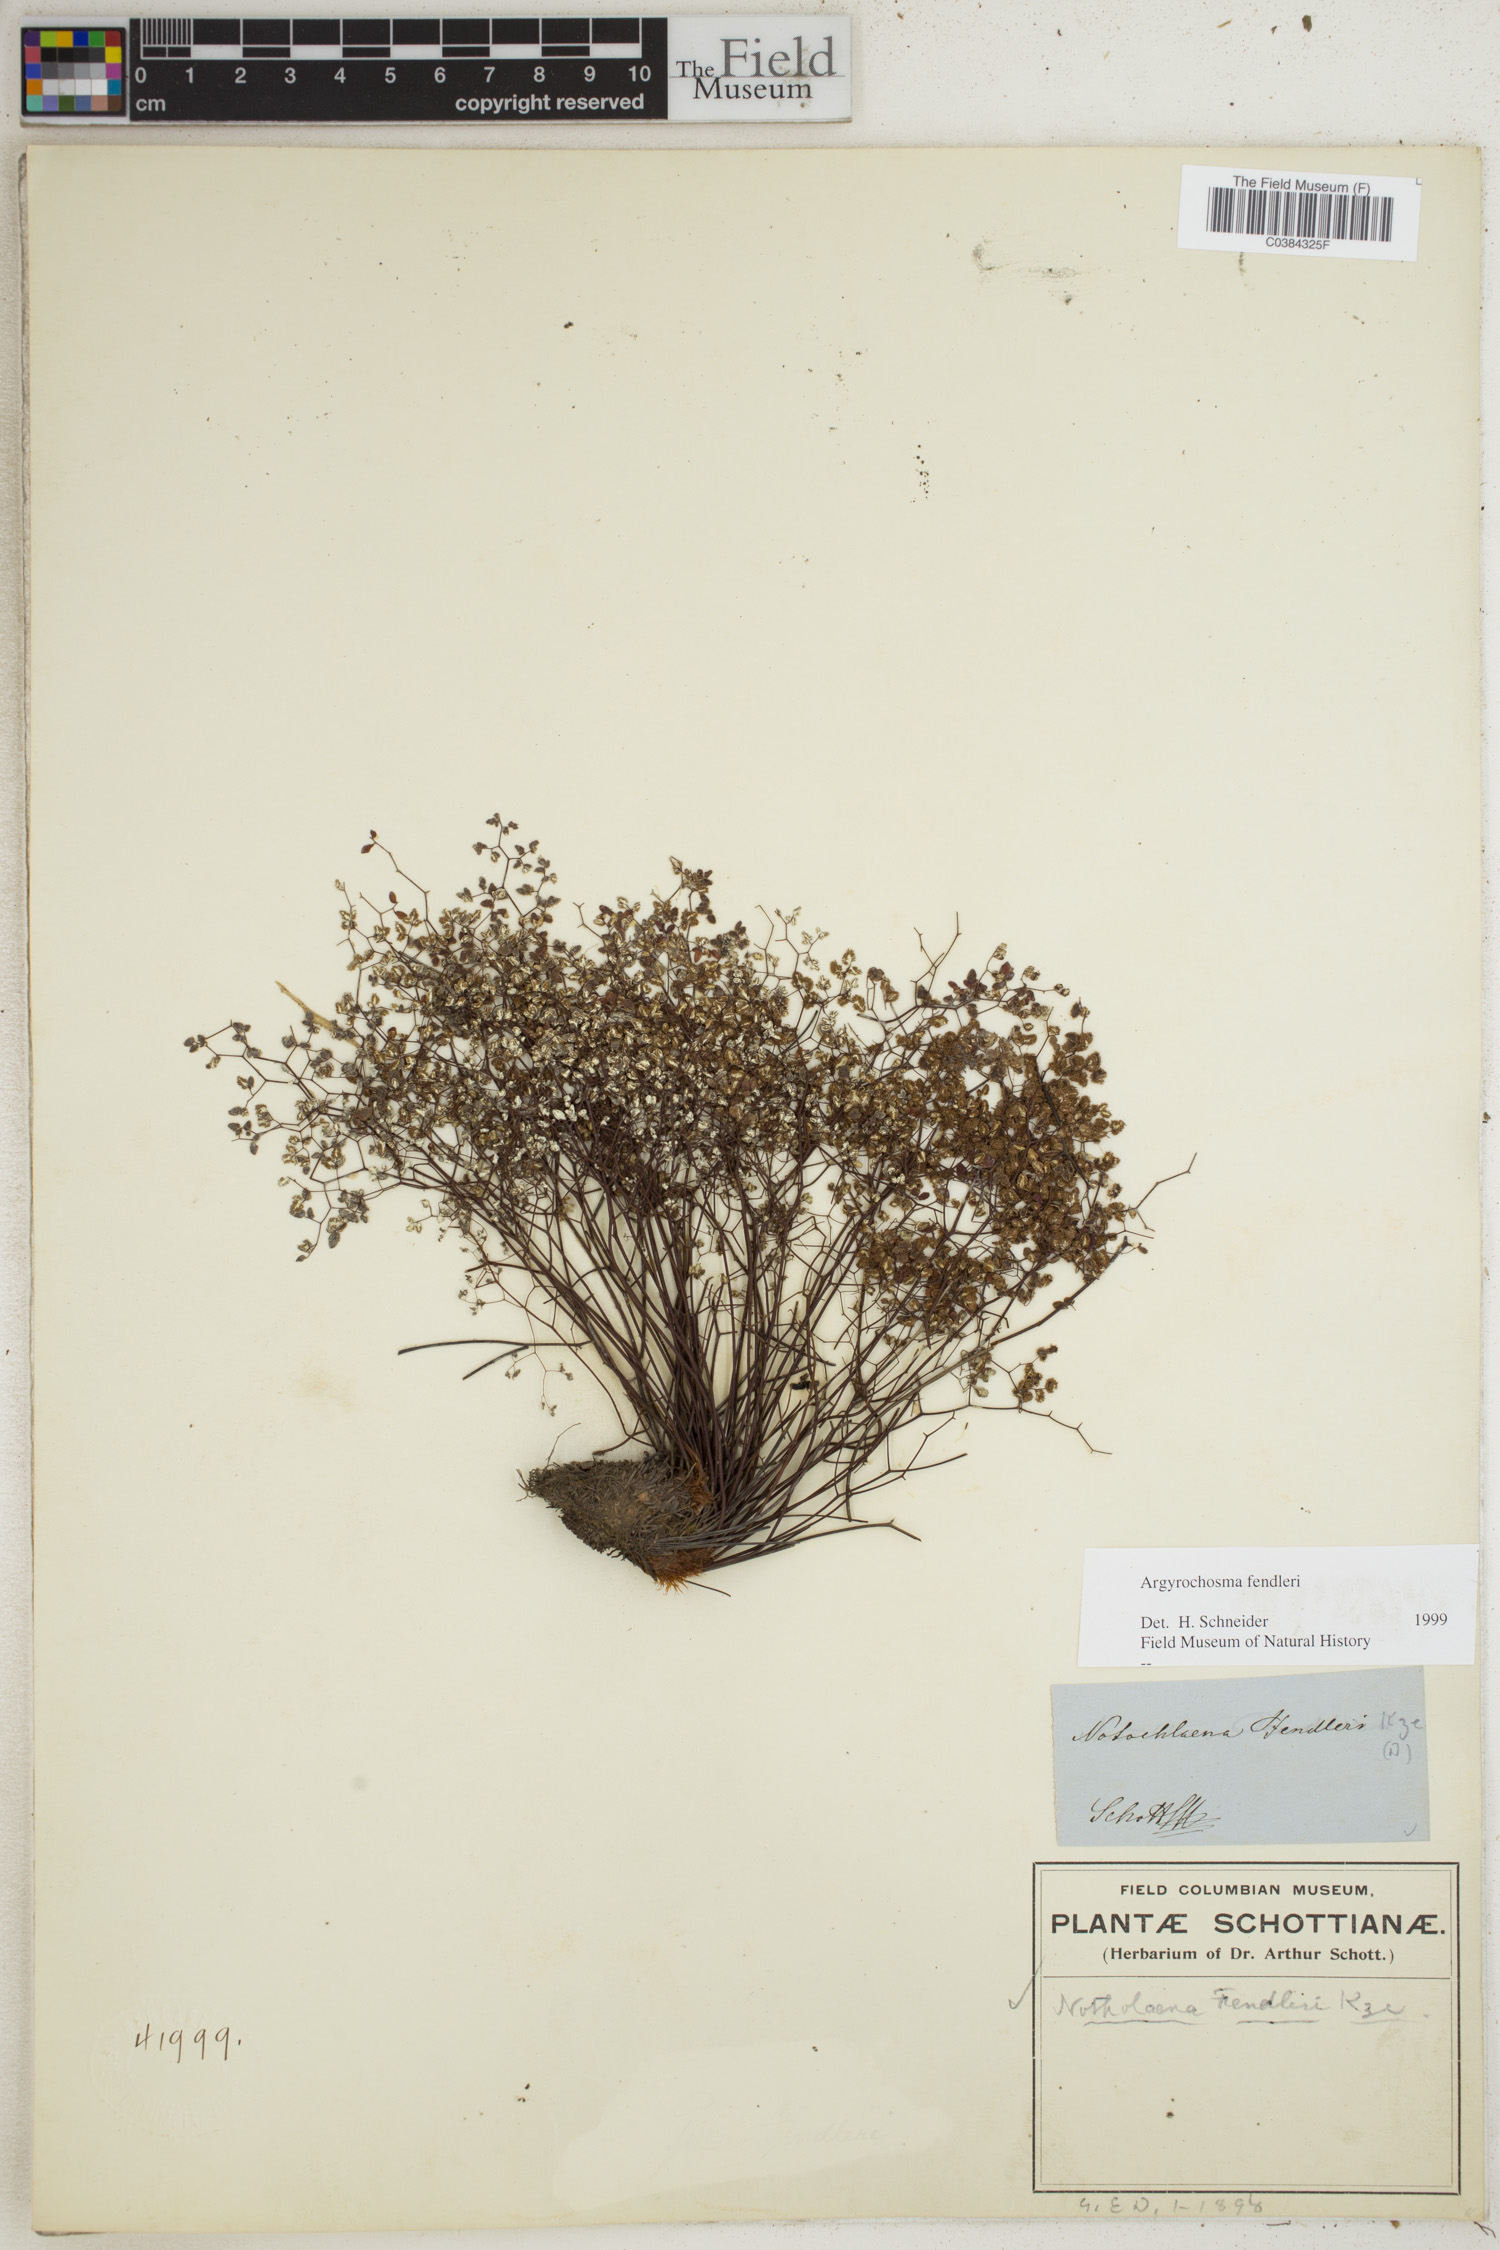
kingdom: Plantae
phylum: Tracheophyta
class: Polypodiopsida
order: Polypodiales
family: Pteridaceae
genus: Argyrochosma
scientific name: Argyrochosma fendleri
